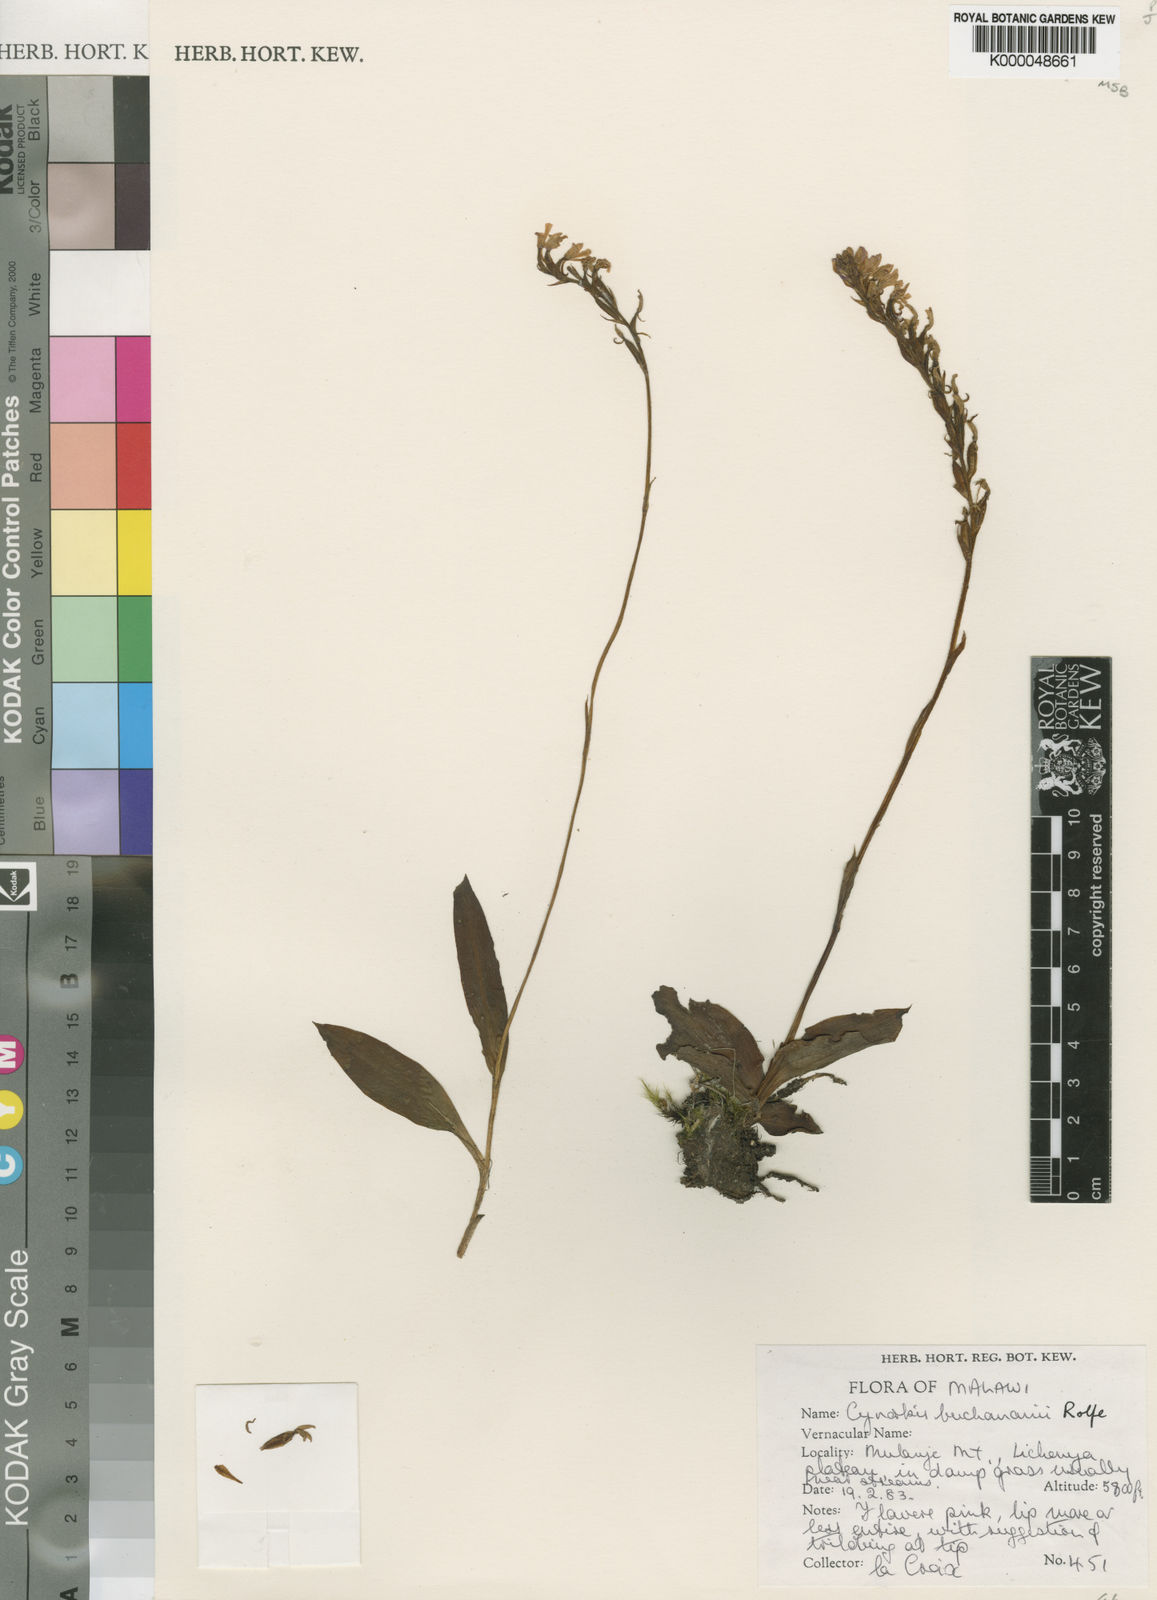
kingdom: Plantae
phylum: Tracheophyta
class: Liliopsida
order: Asparagales
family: Orchidaceae
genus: Cynorkis
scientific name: Cynorkis buchananii
